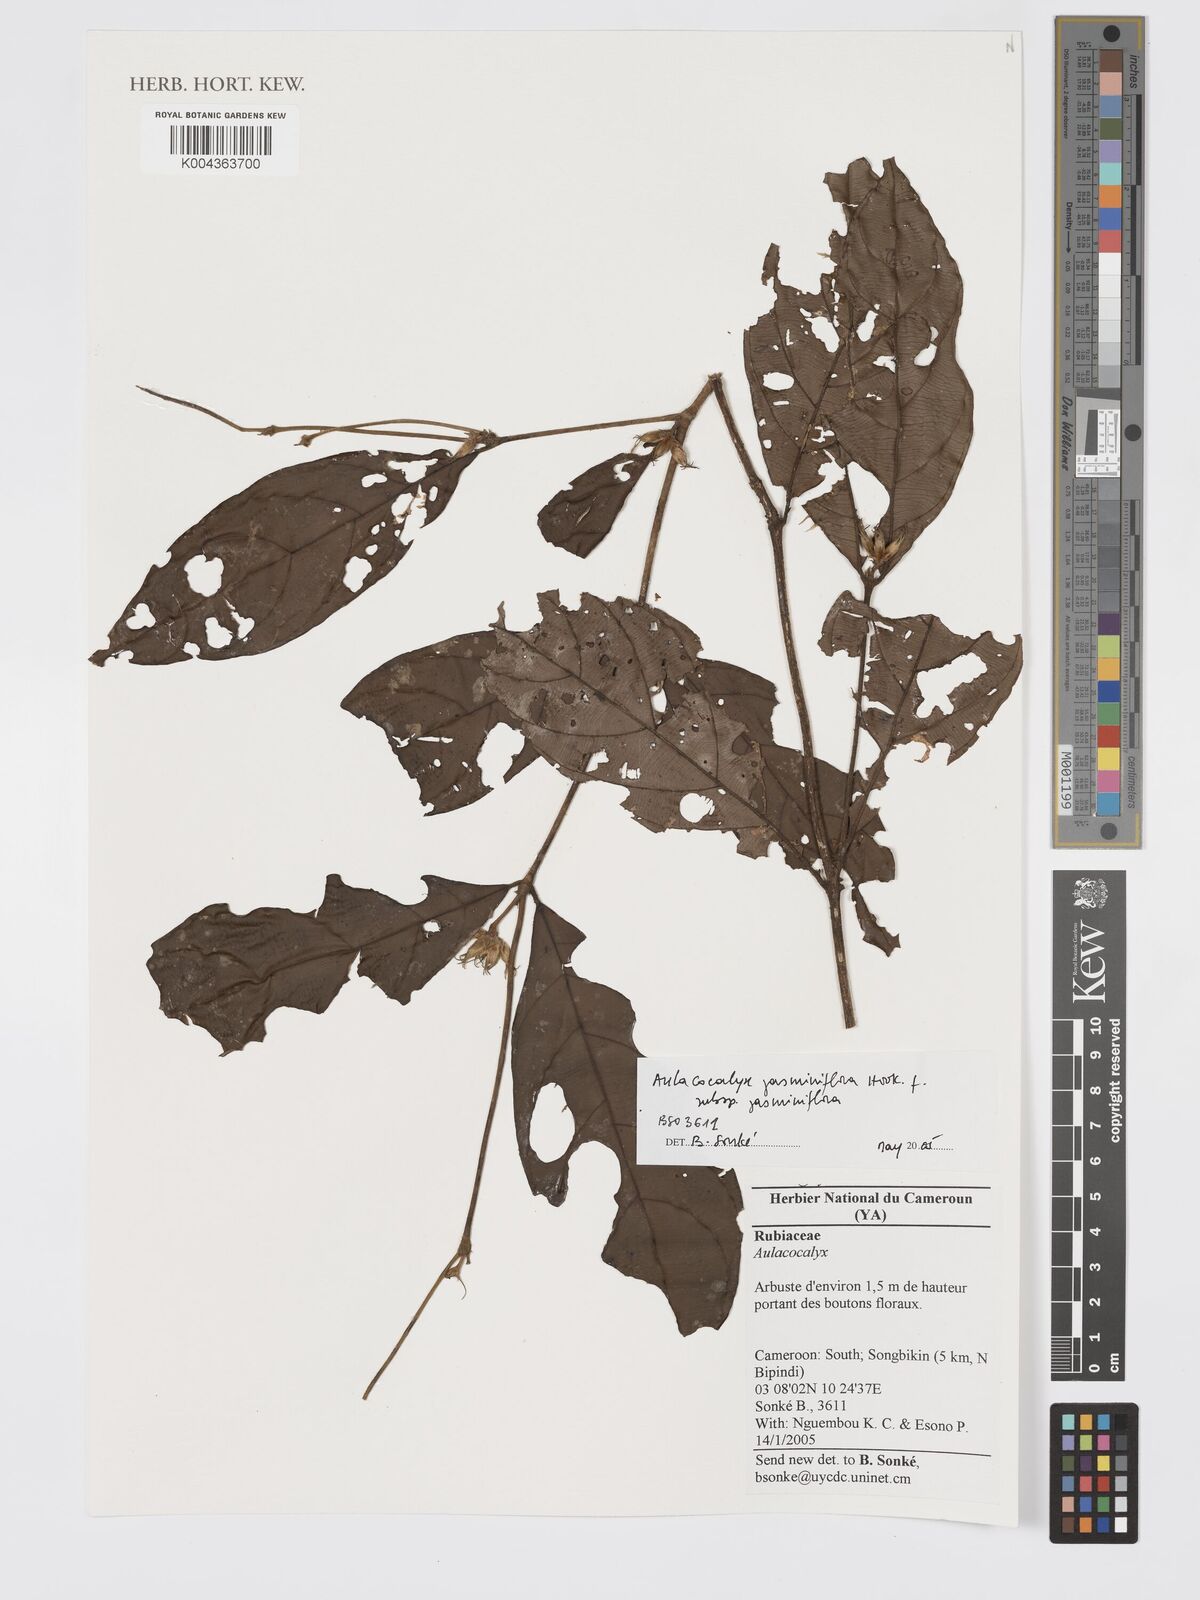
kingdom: Plantae
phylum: Tracheophyta
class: Magnoliopsida
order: Gentianales
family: Rubiaceae
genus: Aulacocalyx
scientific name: Aulacocalyx jasminiflora
